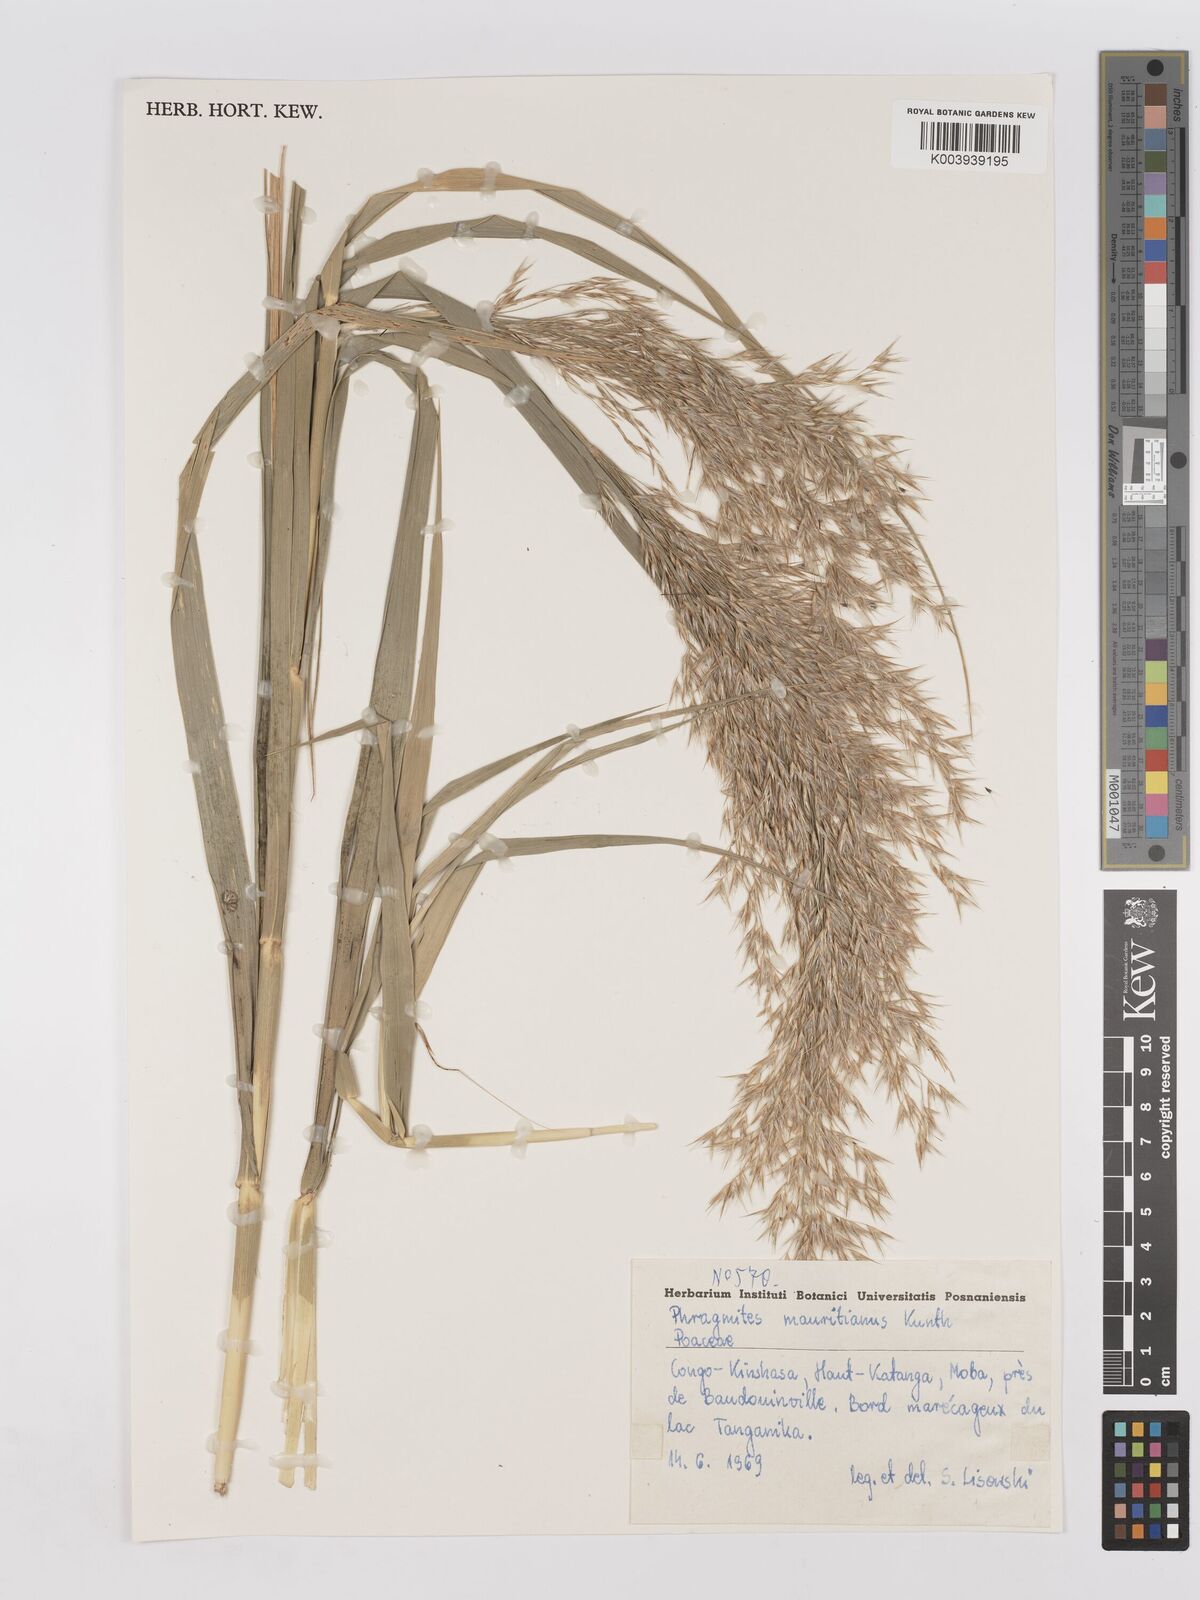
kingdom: Plantae
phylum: Tracheophyta
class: Liliopsida
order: Poales
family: Poaceae
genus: Phragmites
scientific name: Phragmites mauritianus
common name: Reed grass
